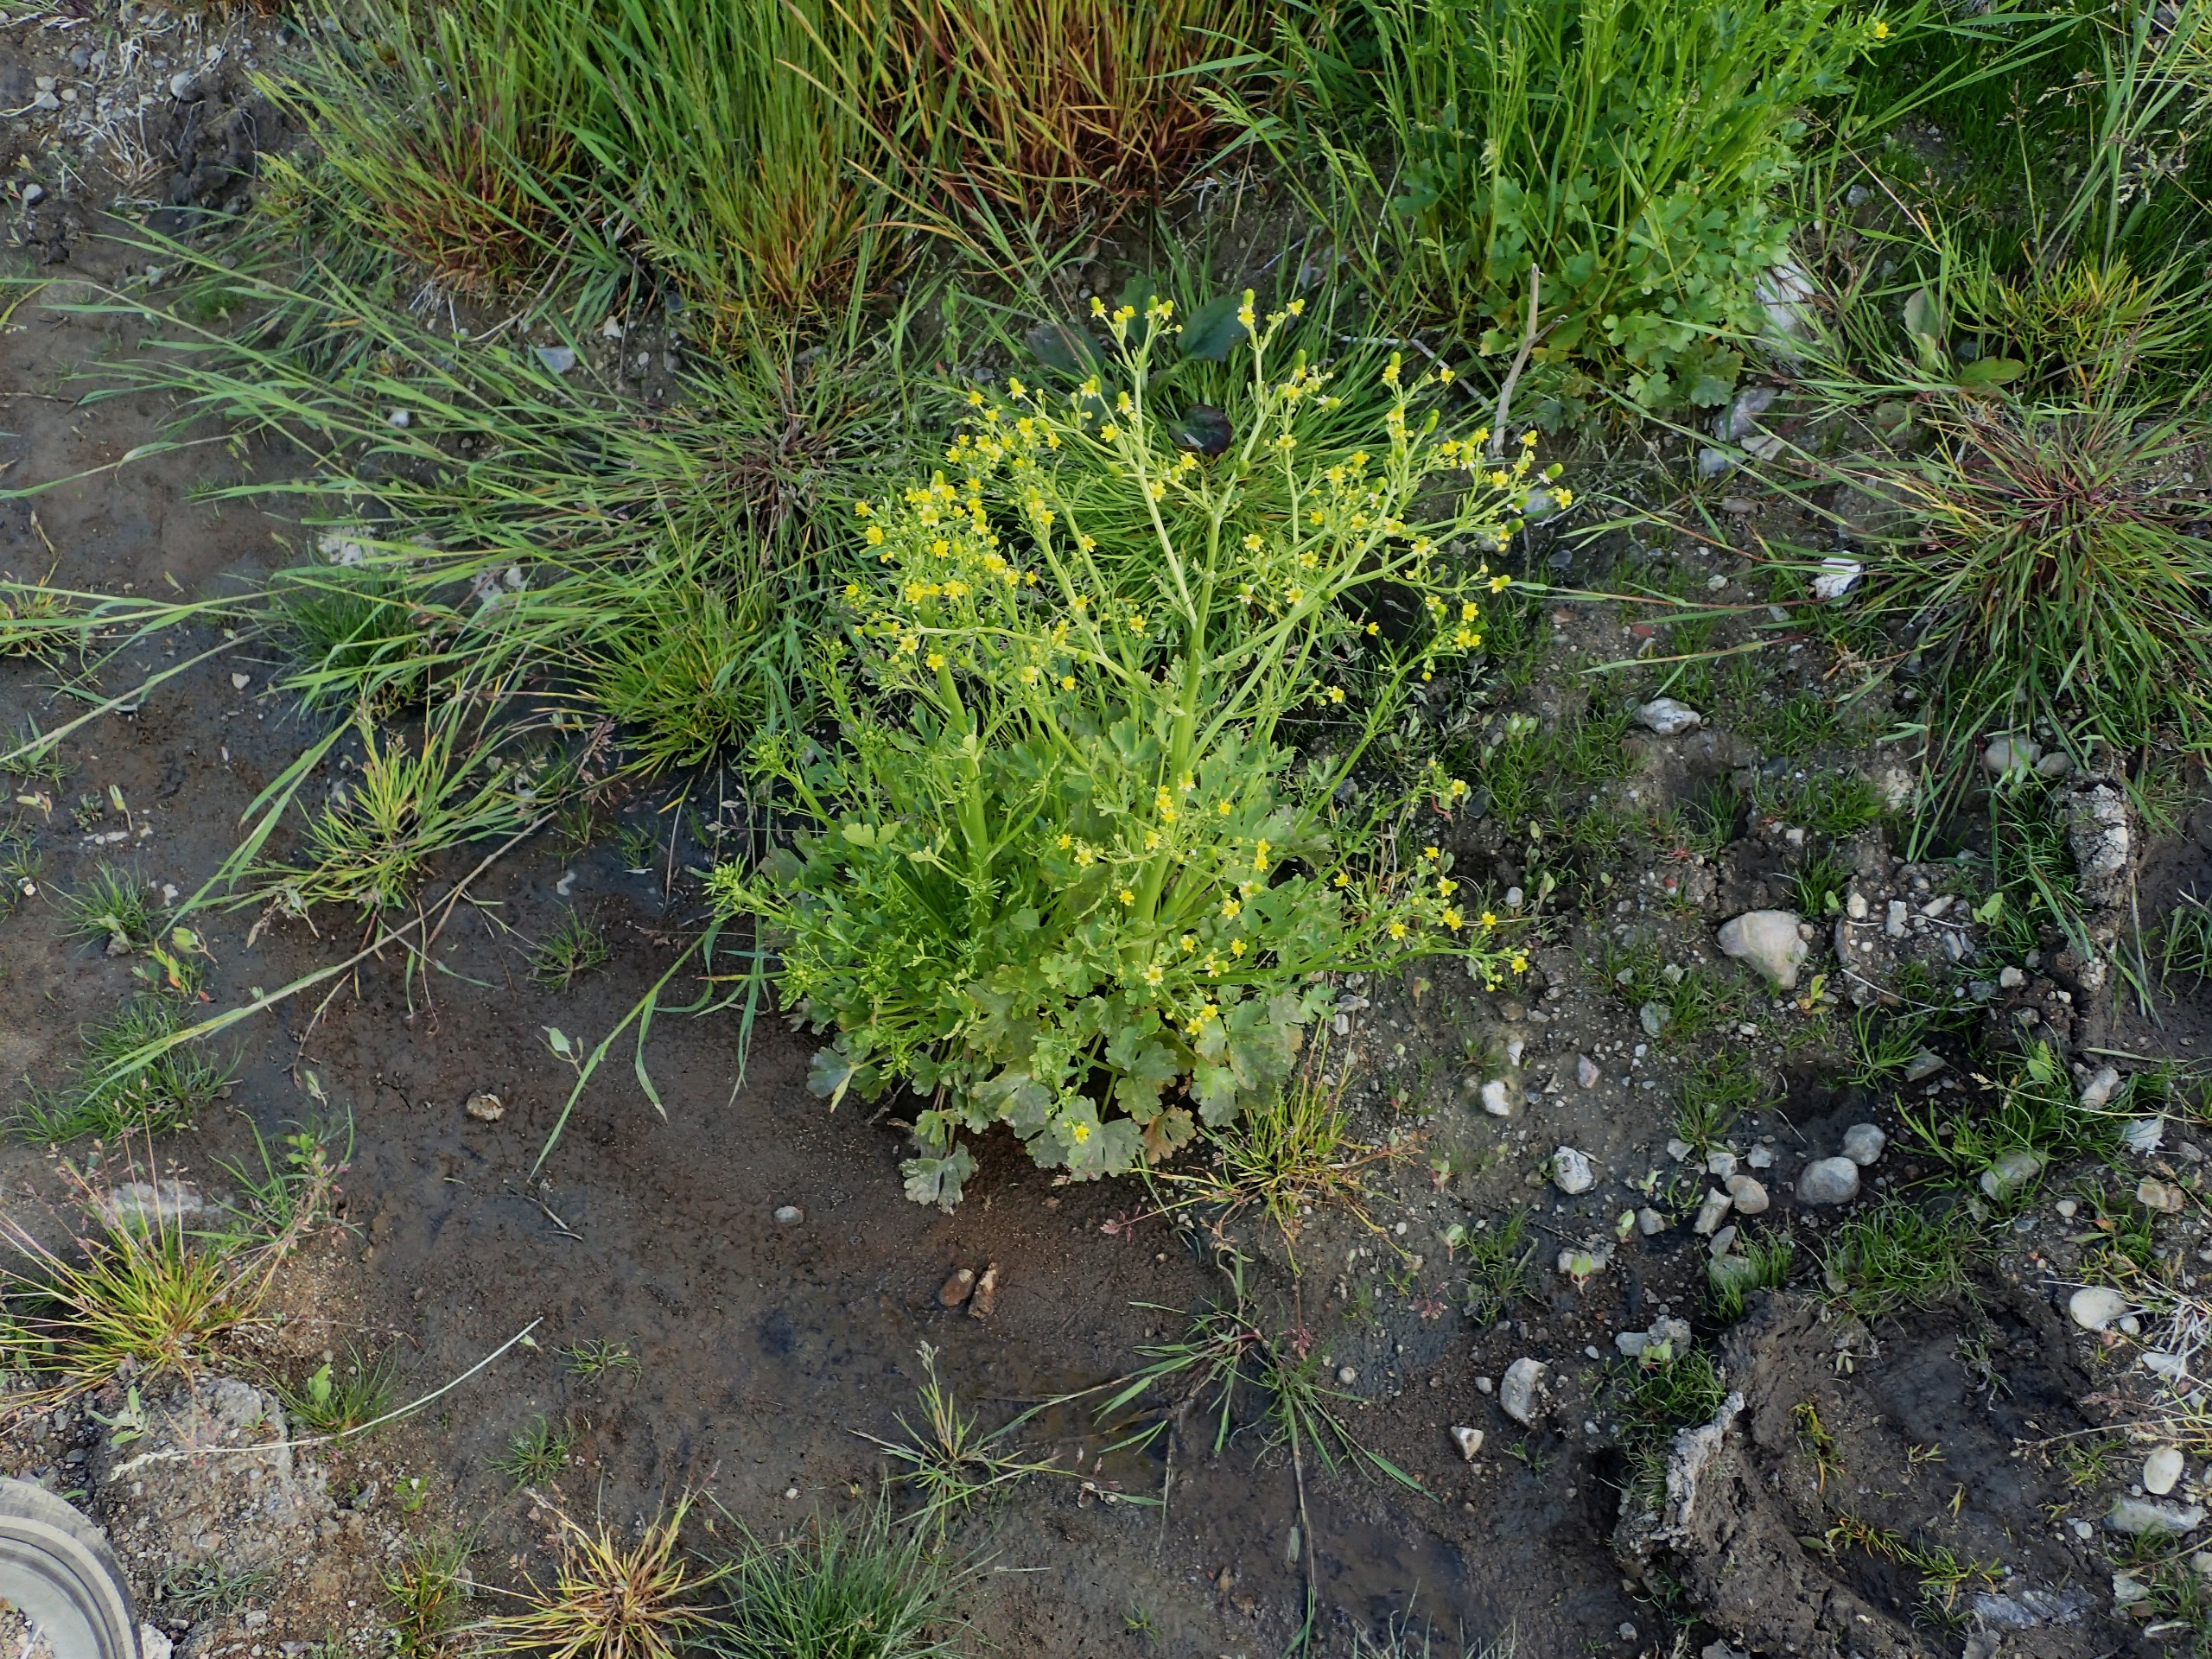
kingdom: Plantae
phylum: Tracheophyta
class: Magnoliopsida
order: Ranunculales
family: Ranunculaceae
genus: Ranunculus
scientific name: Ranunculus sceleratus
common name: Tigger-ranunkel
